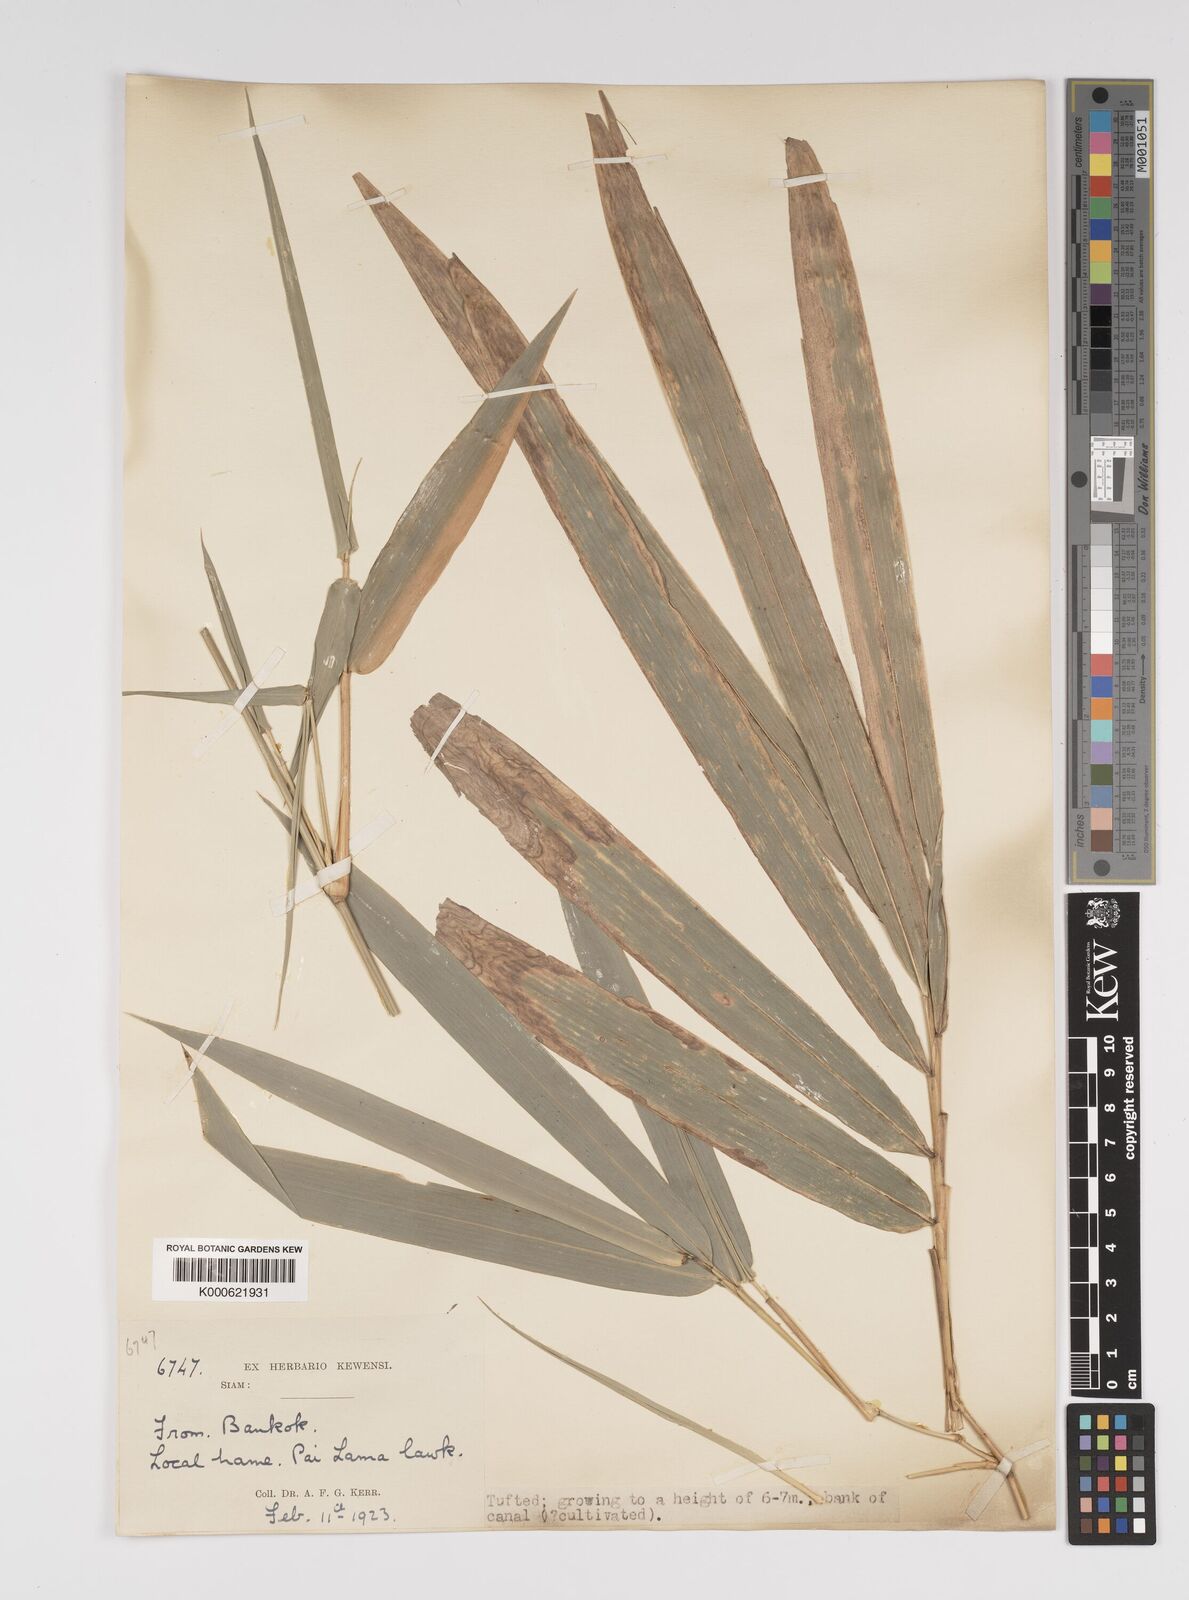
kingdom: Plantae
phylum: Tracheophyta
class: Liliopsida
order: Poales
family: Poaceae
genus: Bambusa
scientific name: Bambusa
